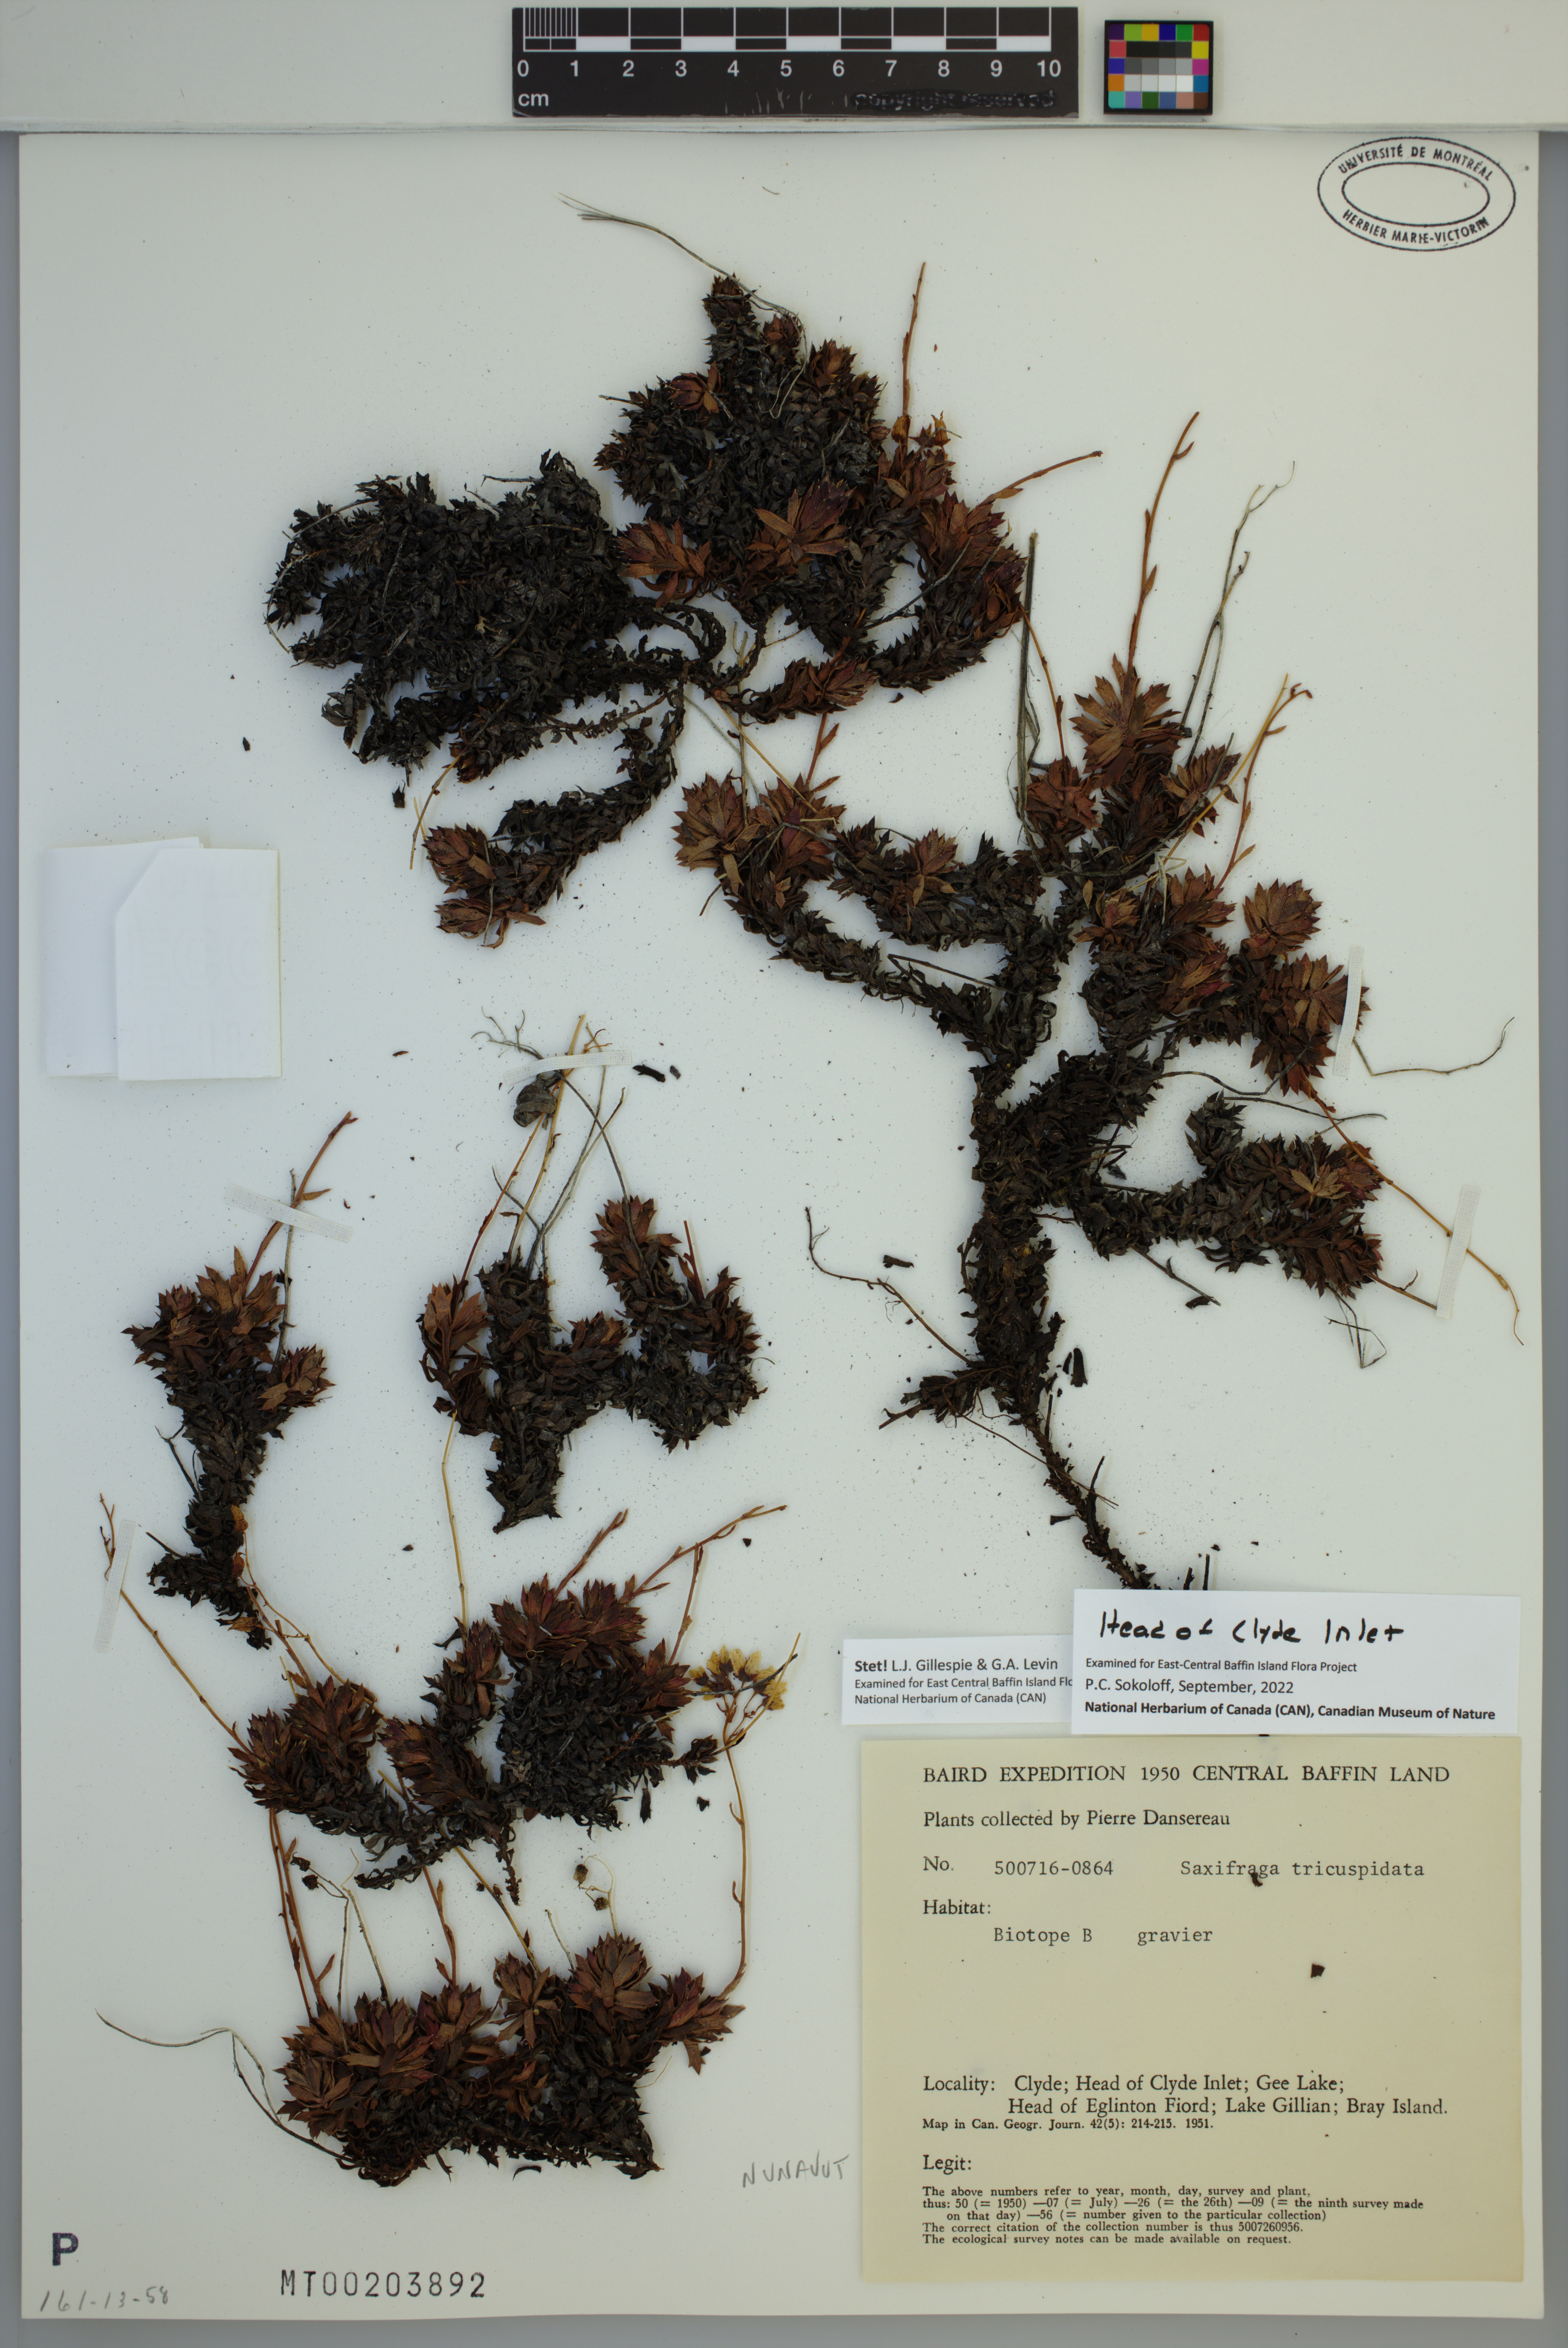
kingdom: Plantae
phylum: Tracheophyta
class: Magnoliopsida
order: Saxifragales
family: Saxifragaceae
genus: Saxifraga
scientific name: Saxifraga tricuspidata
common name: Prickly saxifrage
